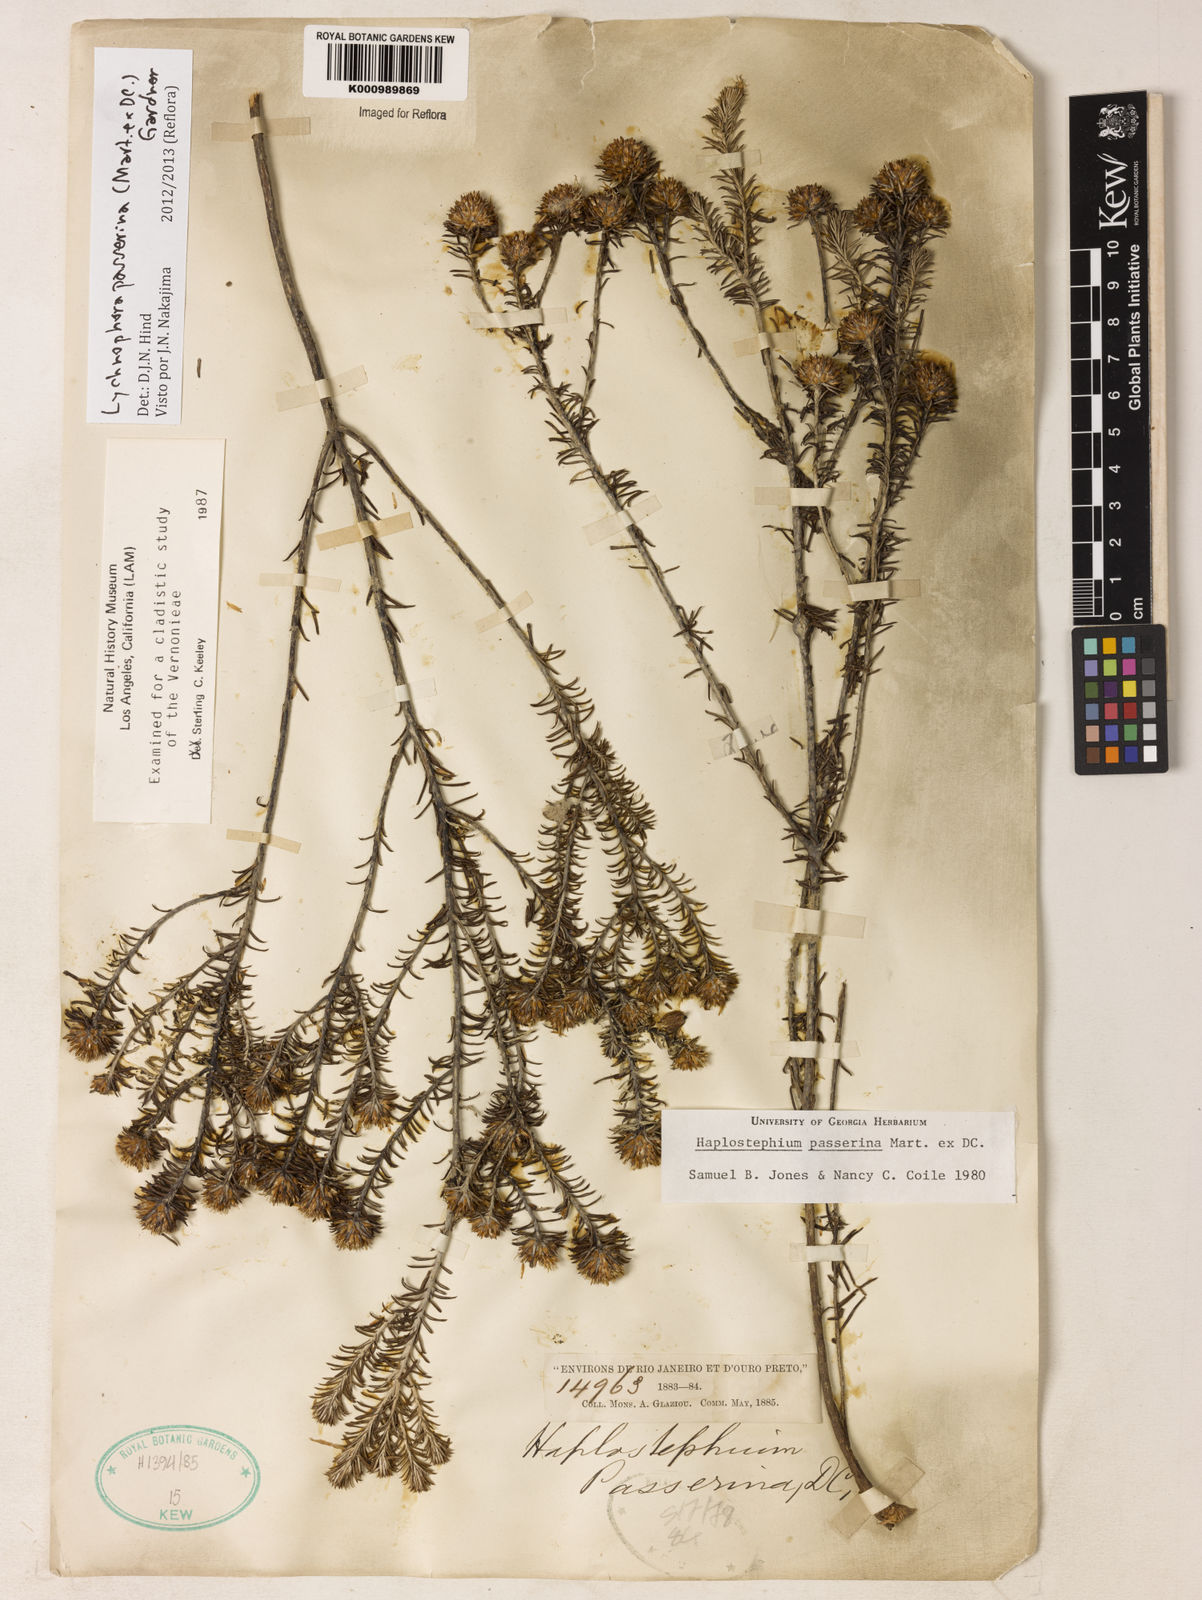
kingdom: Plantae
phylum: Tracheophyta
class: Magnoliopsida
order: Asterales
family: Asteraceae
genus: Lychnophora
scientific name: Lychnophora passerina
